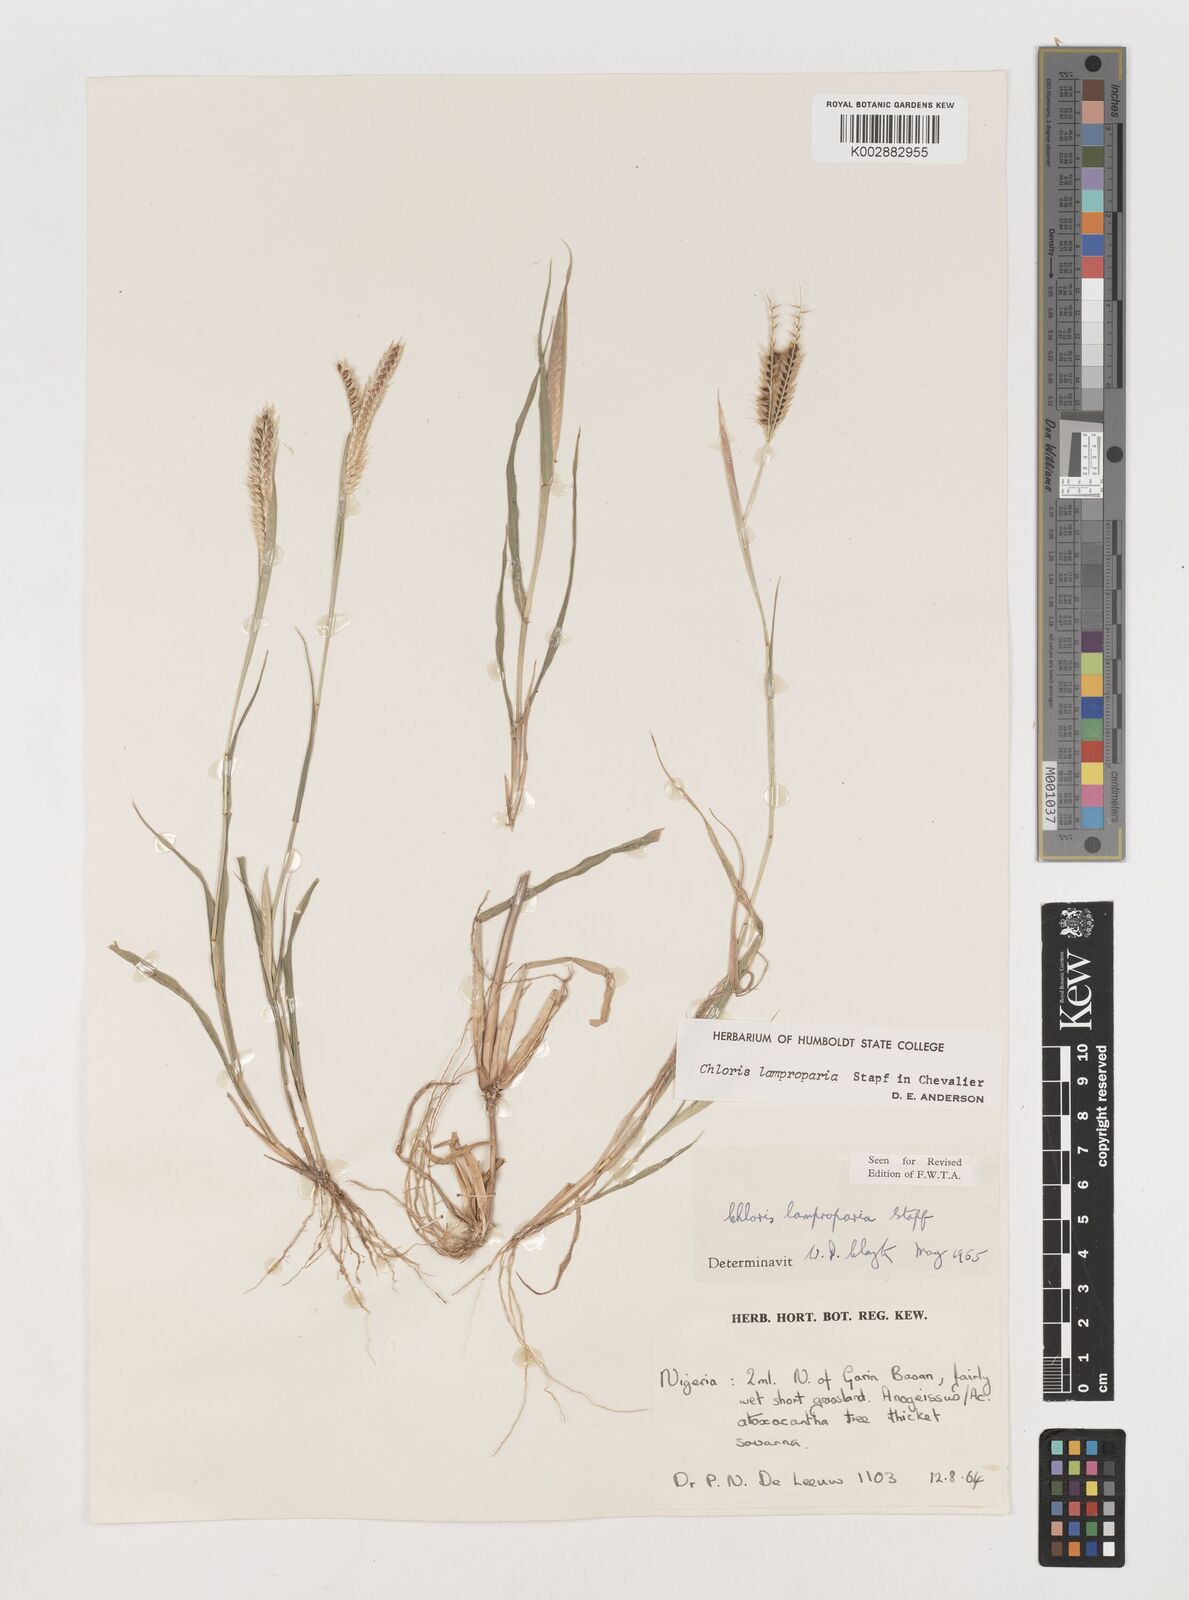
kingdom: Plantae
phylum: Tracheophyta
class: Liliopsida
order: Poales
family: Poaceae
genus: Stapfochloa
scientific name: Stapfochloa lamproparia
